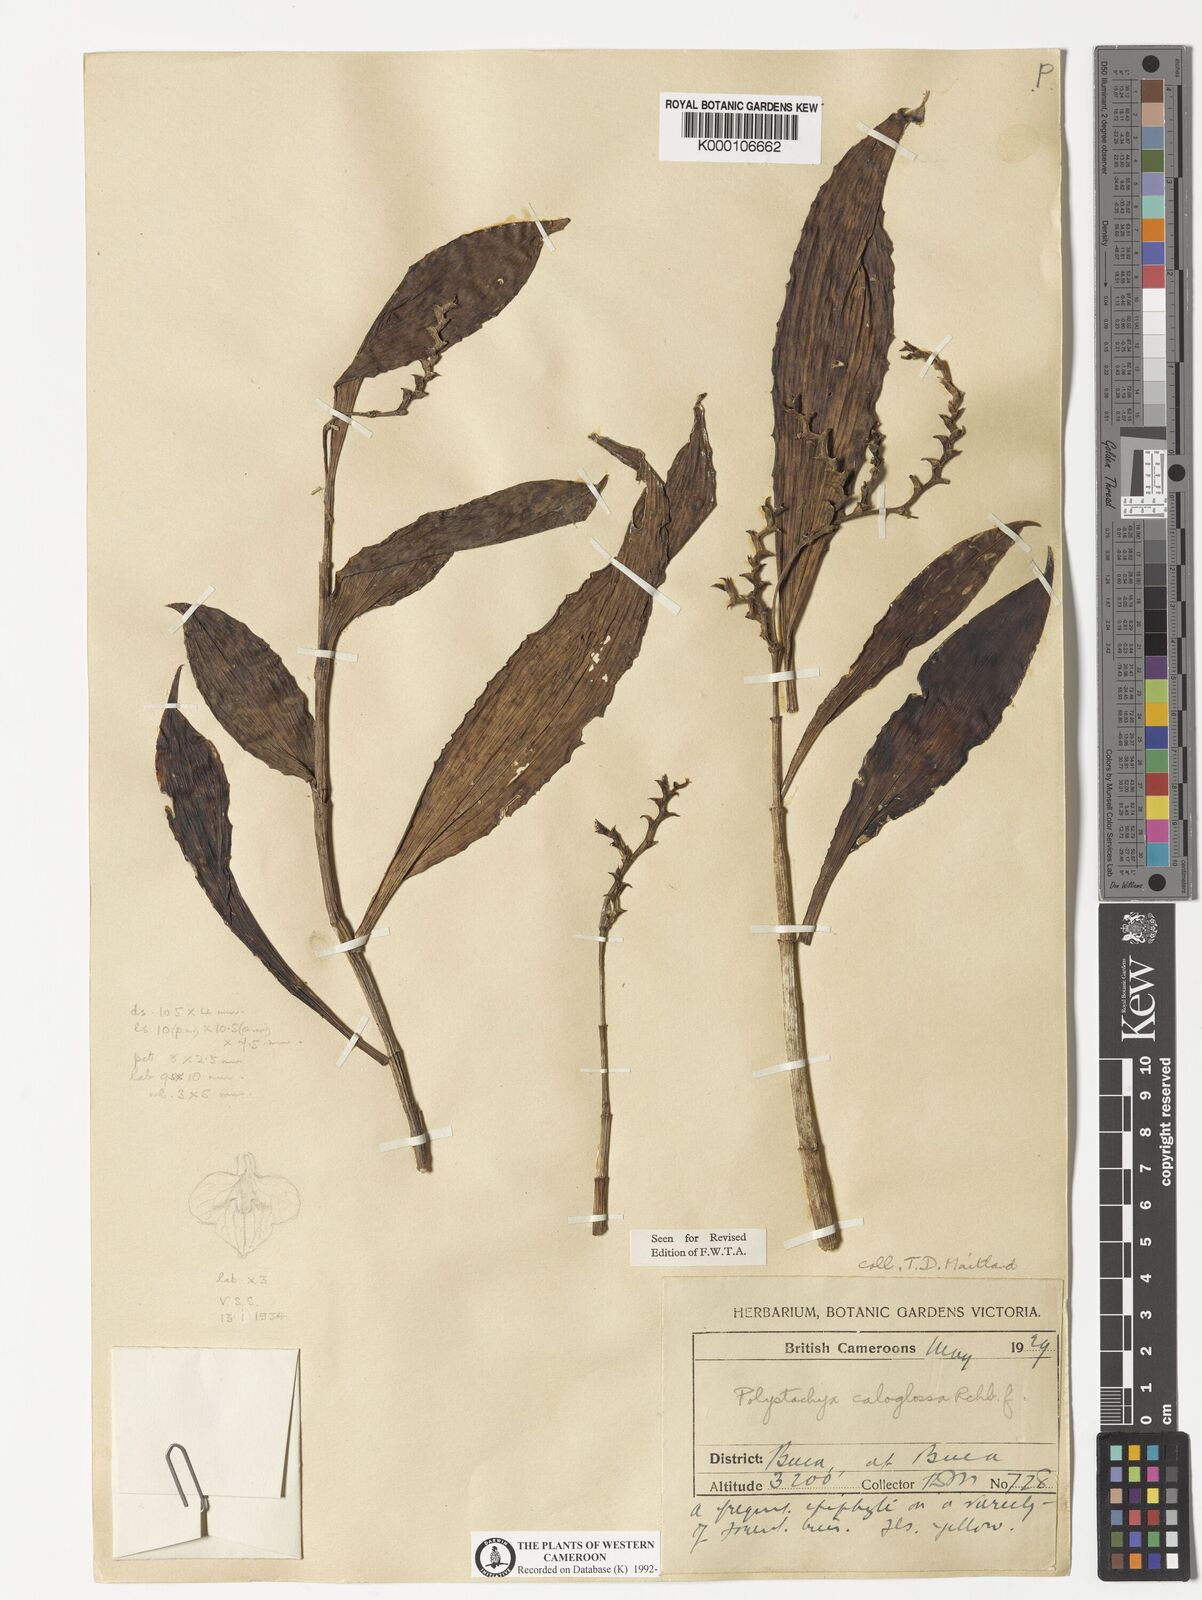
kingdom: Plantae
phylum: Tracheophyta
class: Liliopsida
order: Asparagales
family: Orchidaceae
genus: Polystachya
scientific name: Polystachya caloglossa
